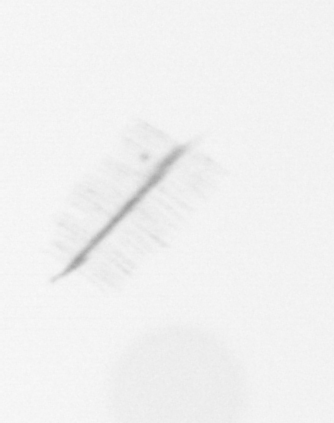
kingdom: Chromista
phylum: Ochrophyta
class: Bacillariophyceae
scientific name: Bacillariophyceae
